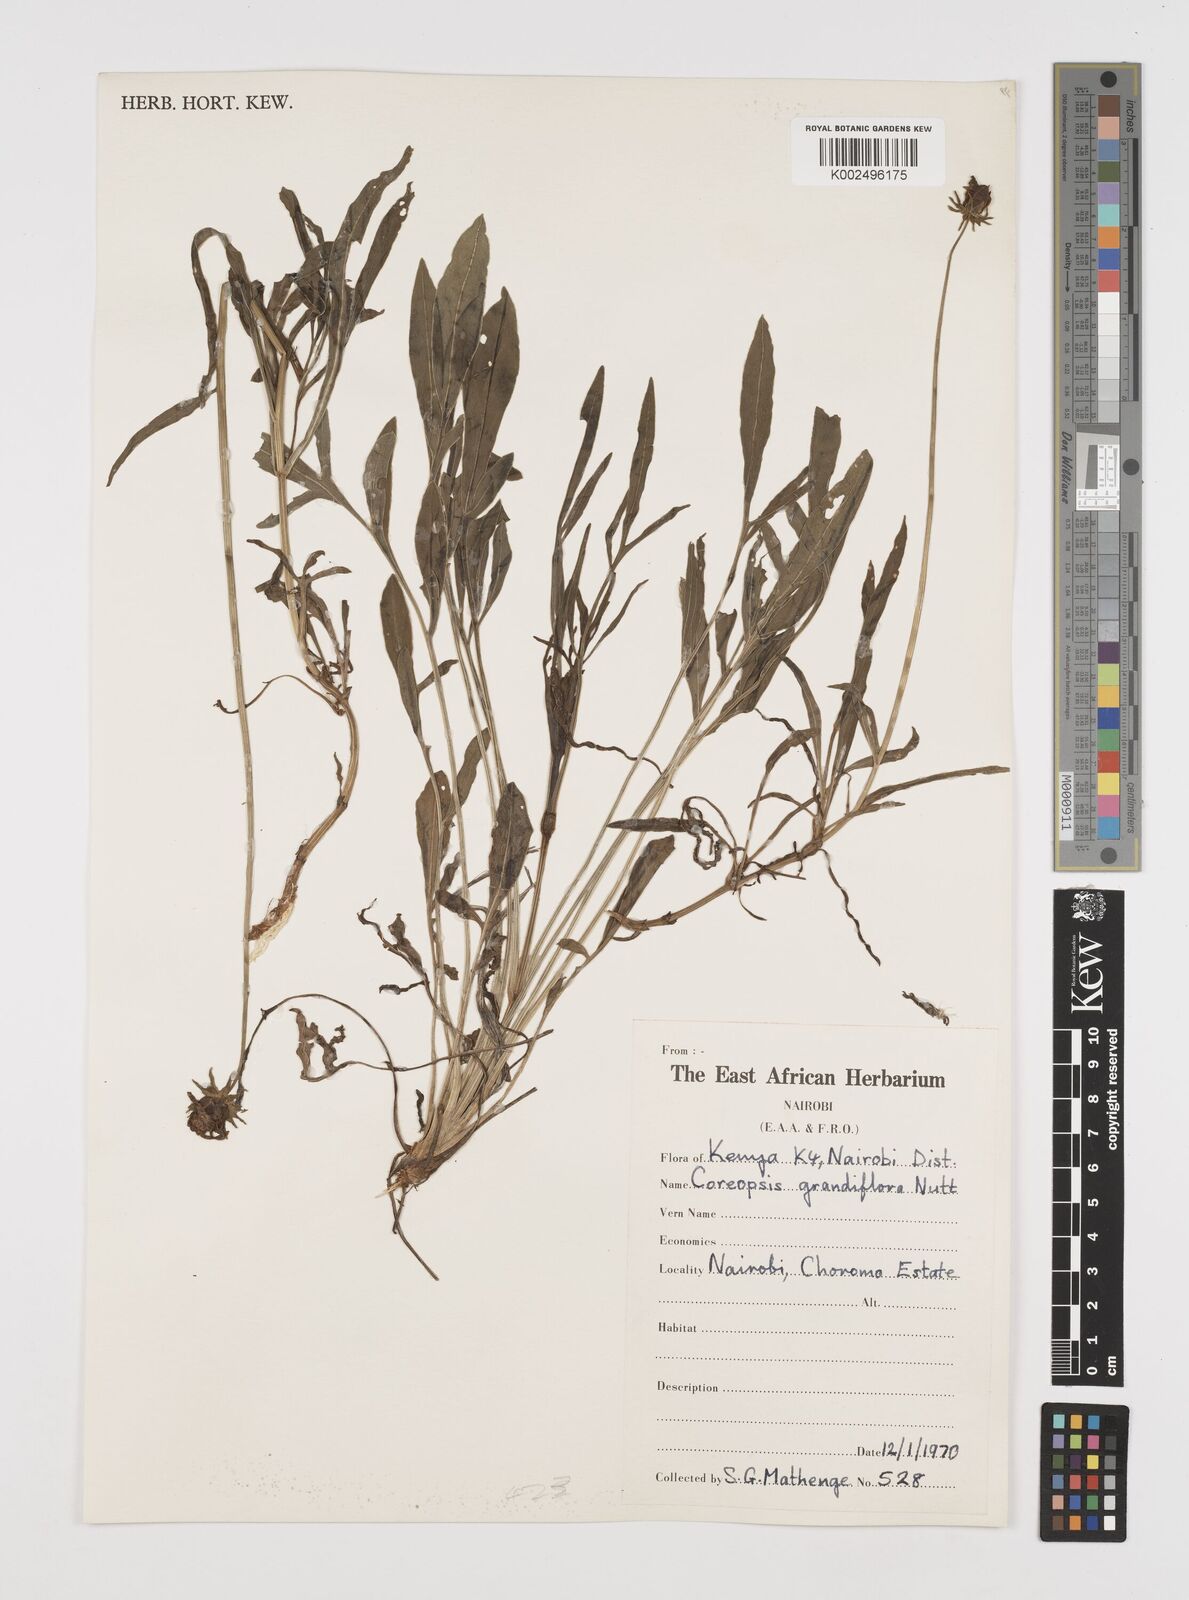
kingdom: Plantae
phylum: Tracheophyta
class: Magnoliopsida
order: Asterales
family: Asteraceae
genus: Coreopsis
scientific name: Coreopsis grandiflora
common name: Large-flowered tickseed
